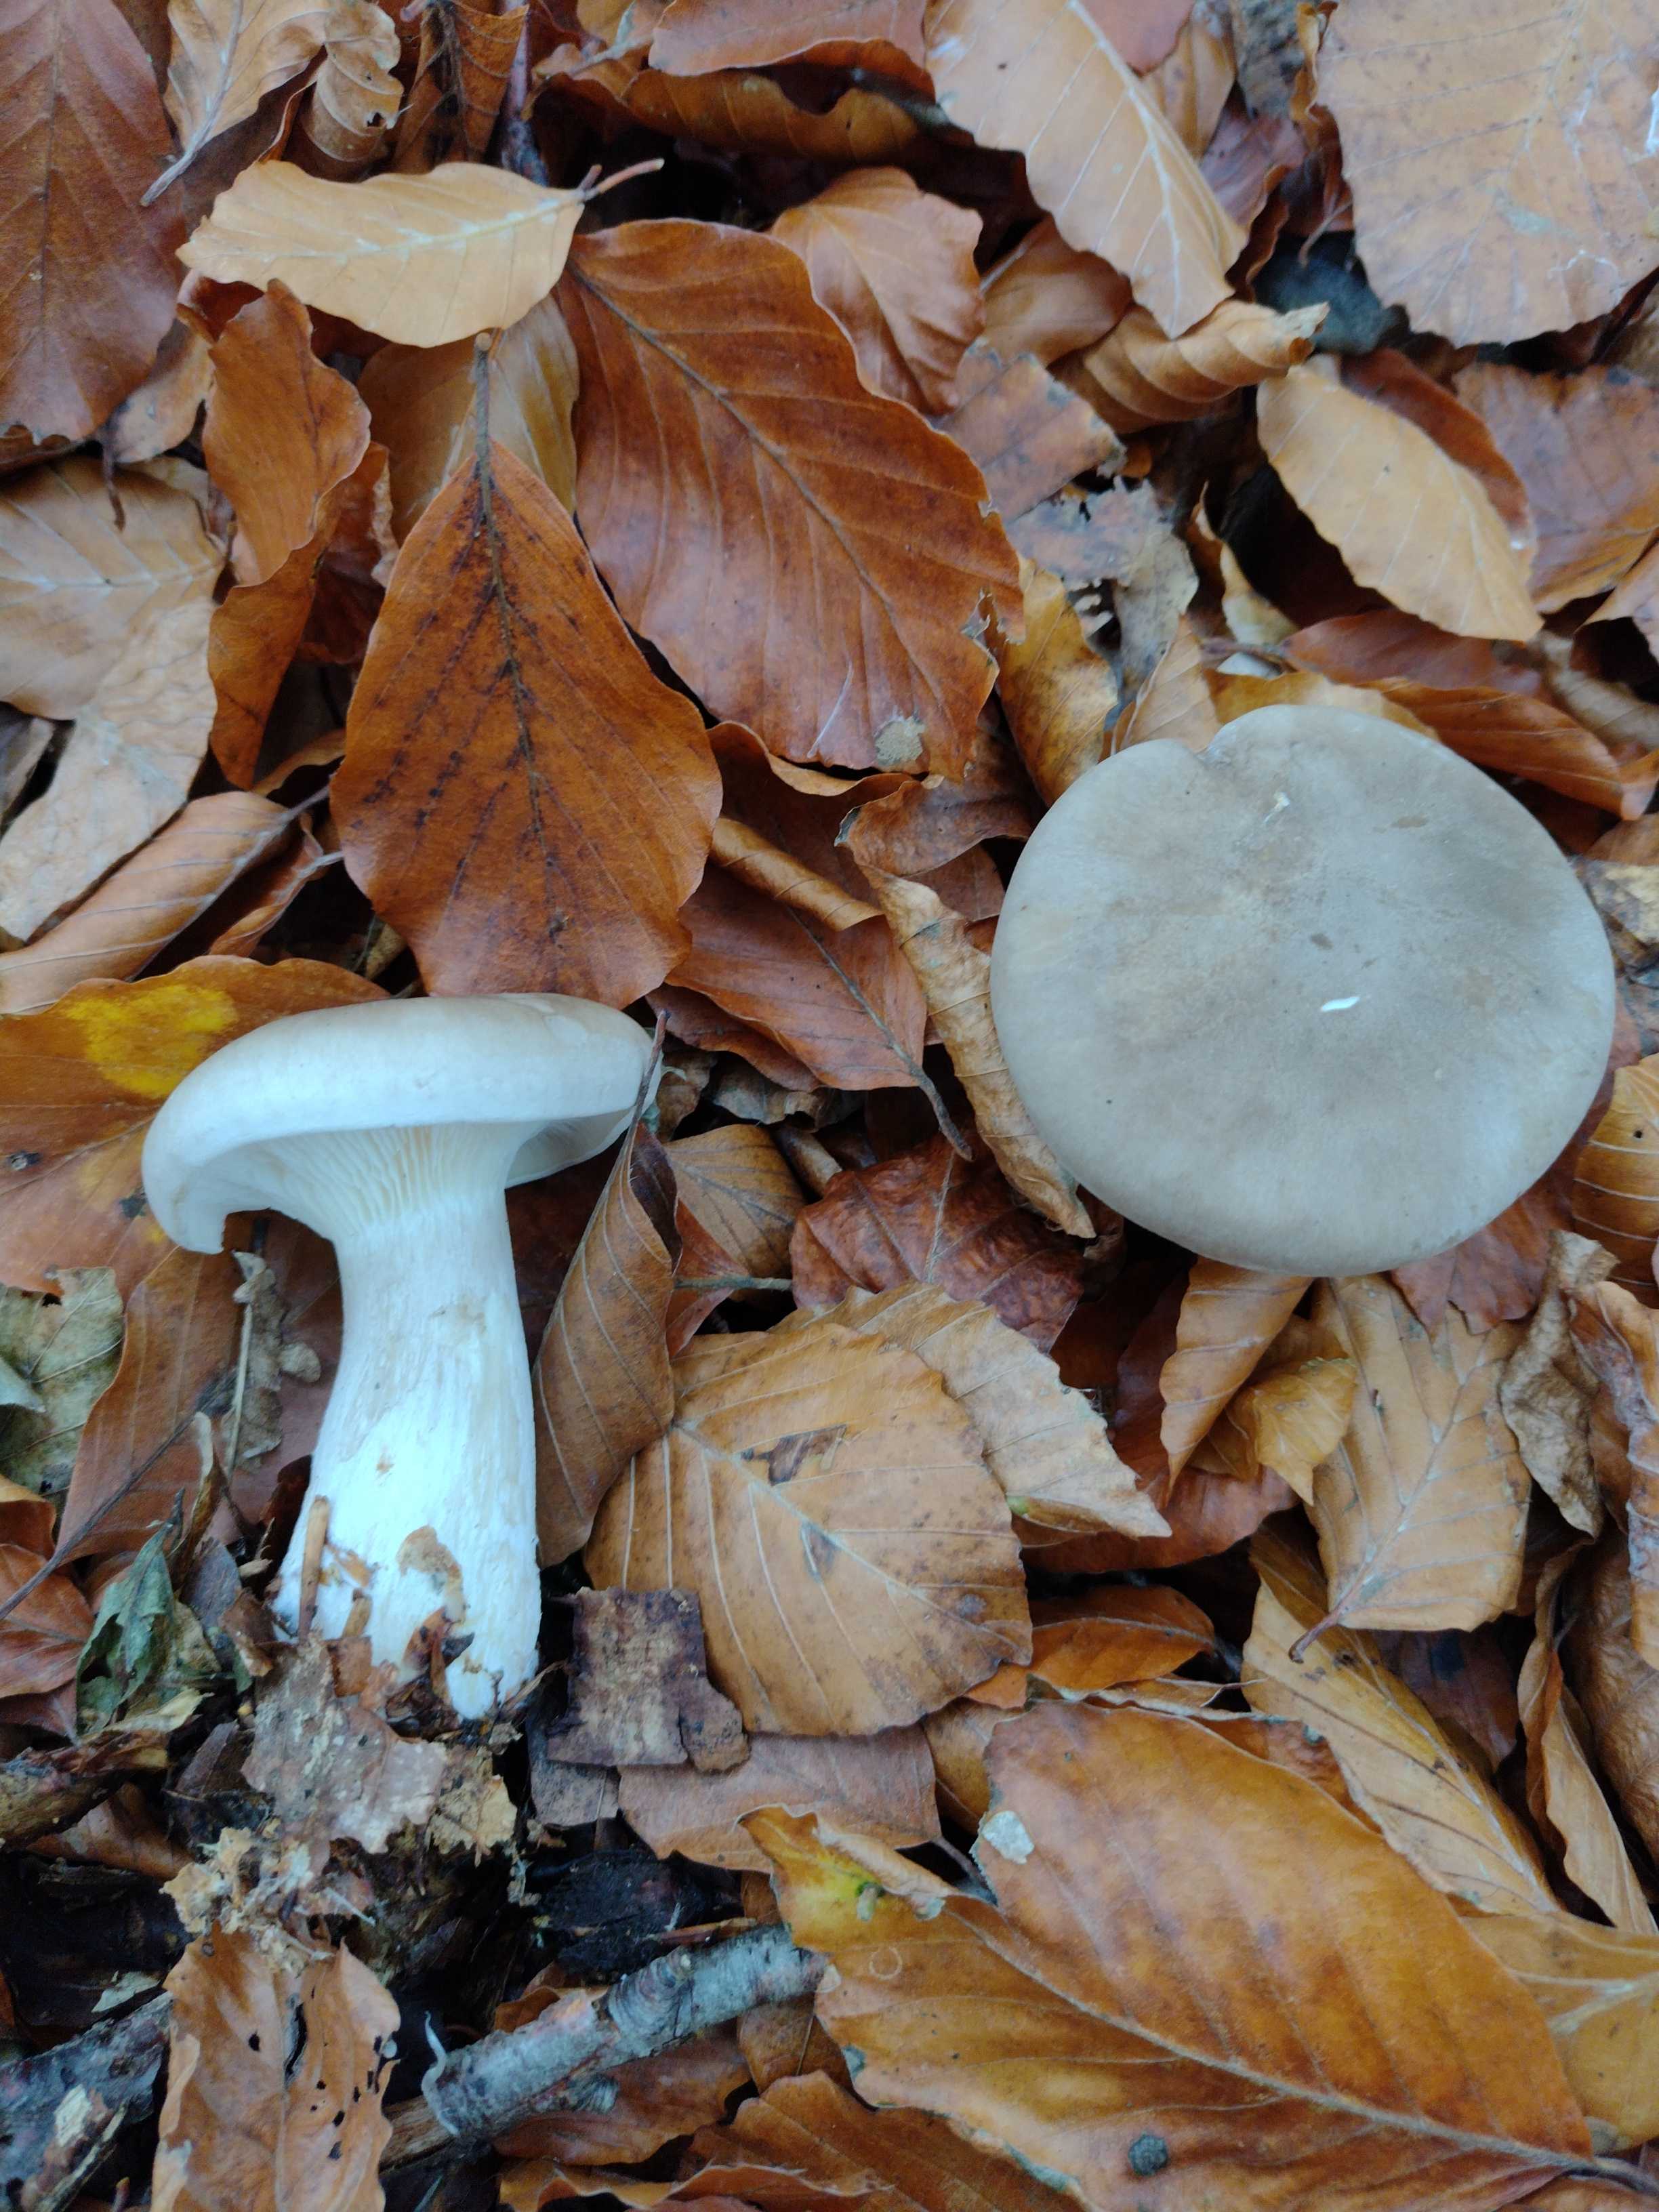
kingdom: Fungi
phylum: Basidiomycota
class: Agaricomycetes
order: Agaricales
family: Tricholomataceae
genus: Clitocybe
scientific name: Clitocybe nebularis
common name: tåge-tragthat
